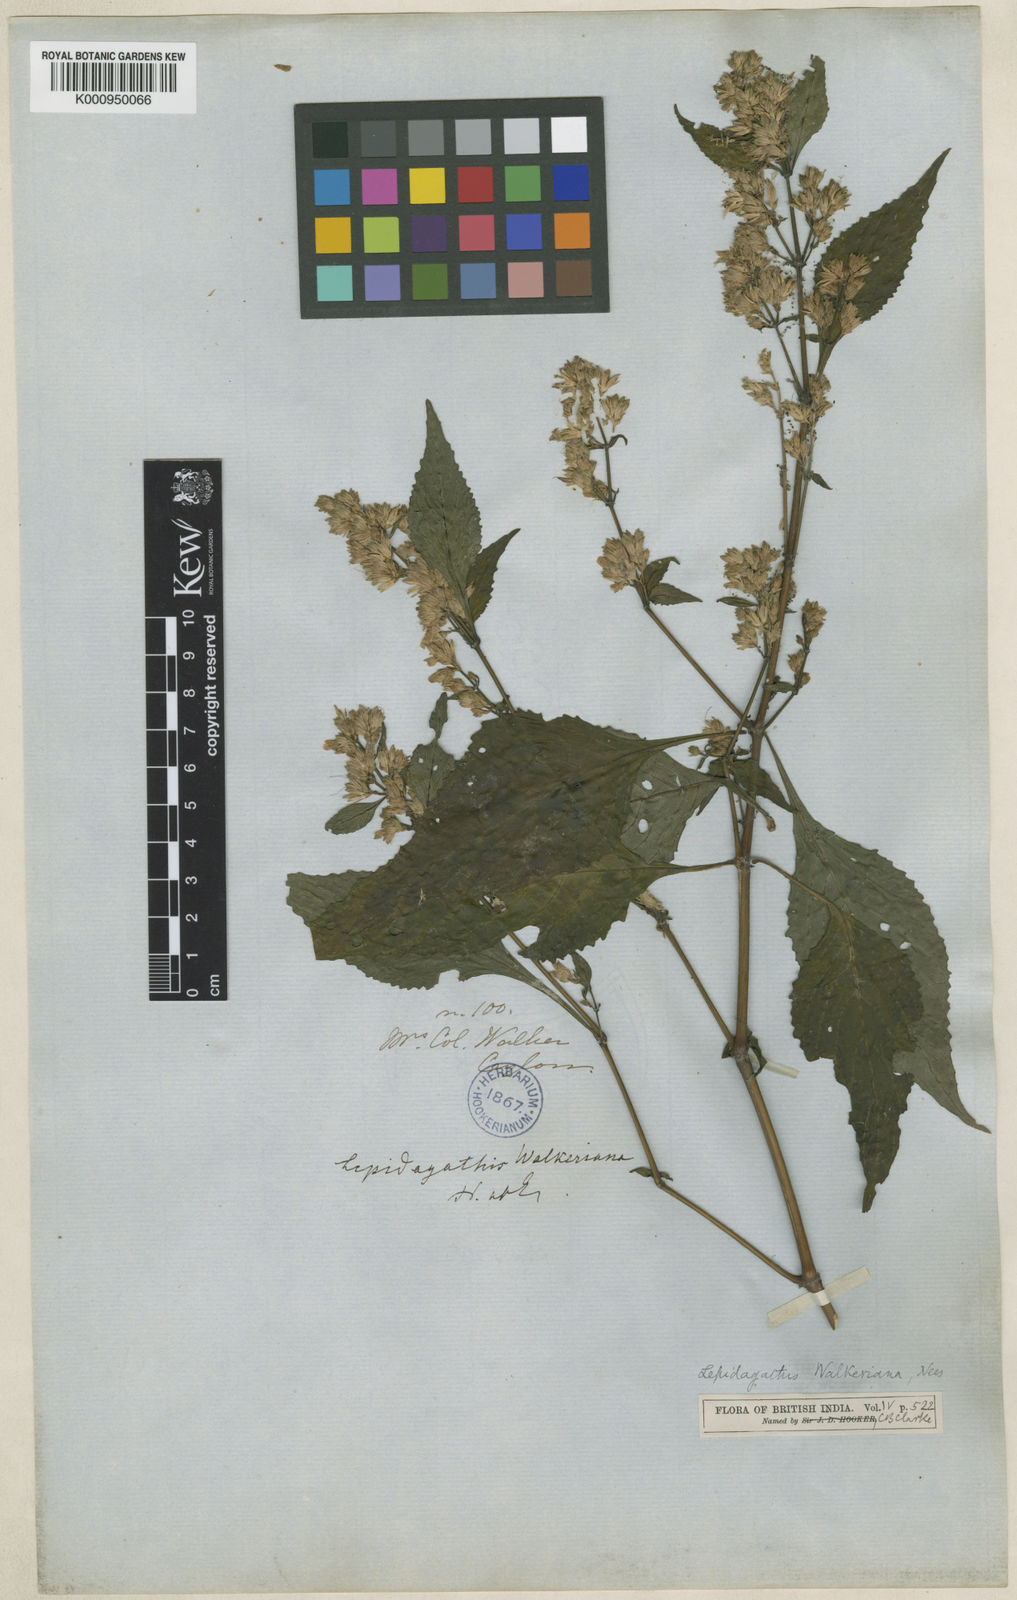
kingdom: Plantae
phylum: Tracheophyta
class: Magnoliopsida
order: Lamiales
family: Acanthaceae
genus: Lepidagathis
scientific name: Lepidagathis walkeriana
